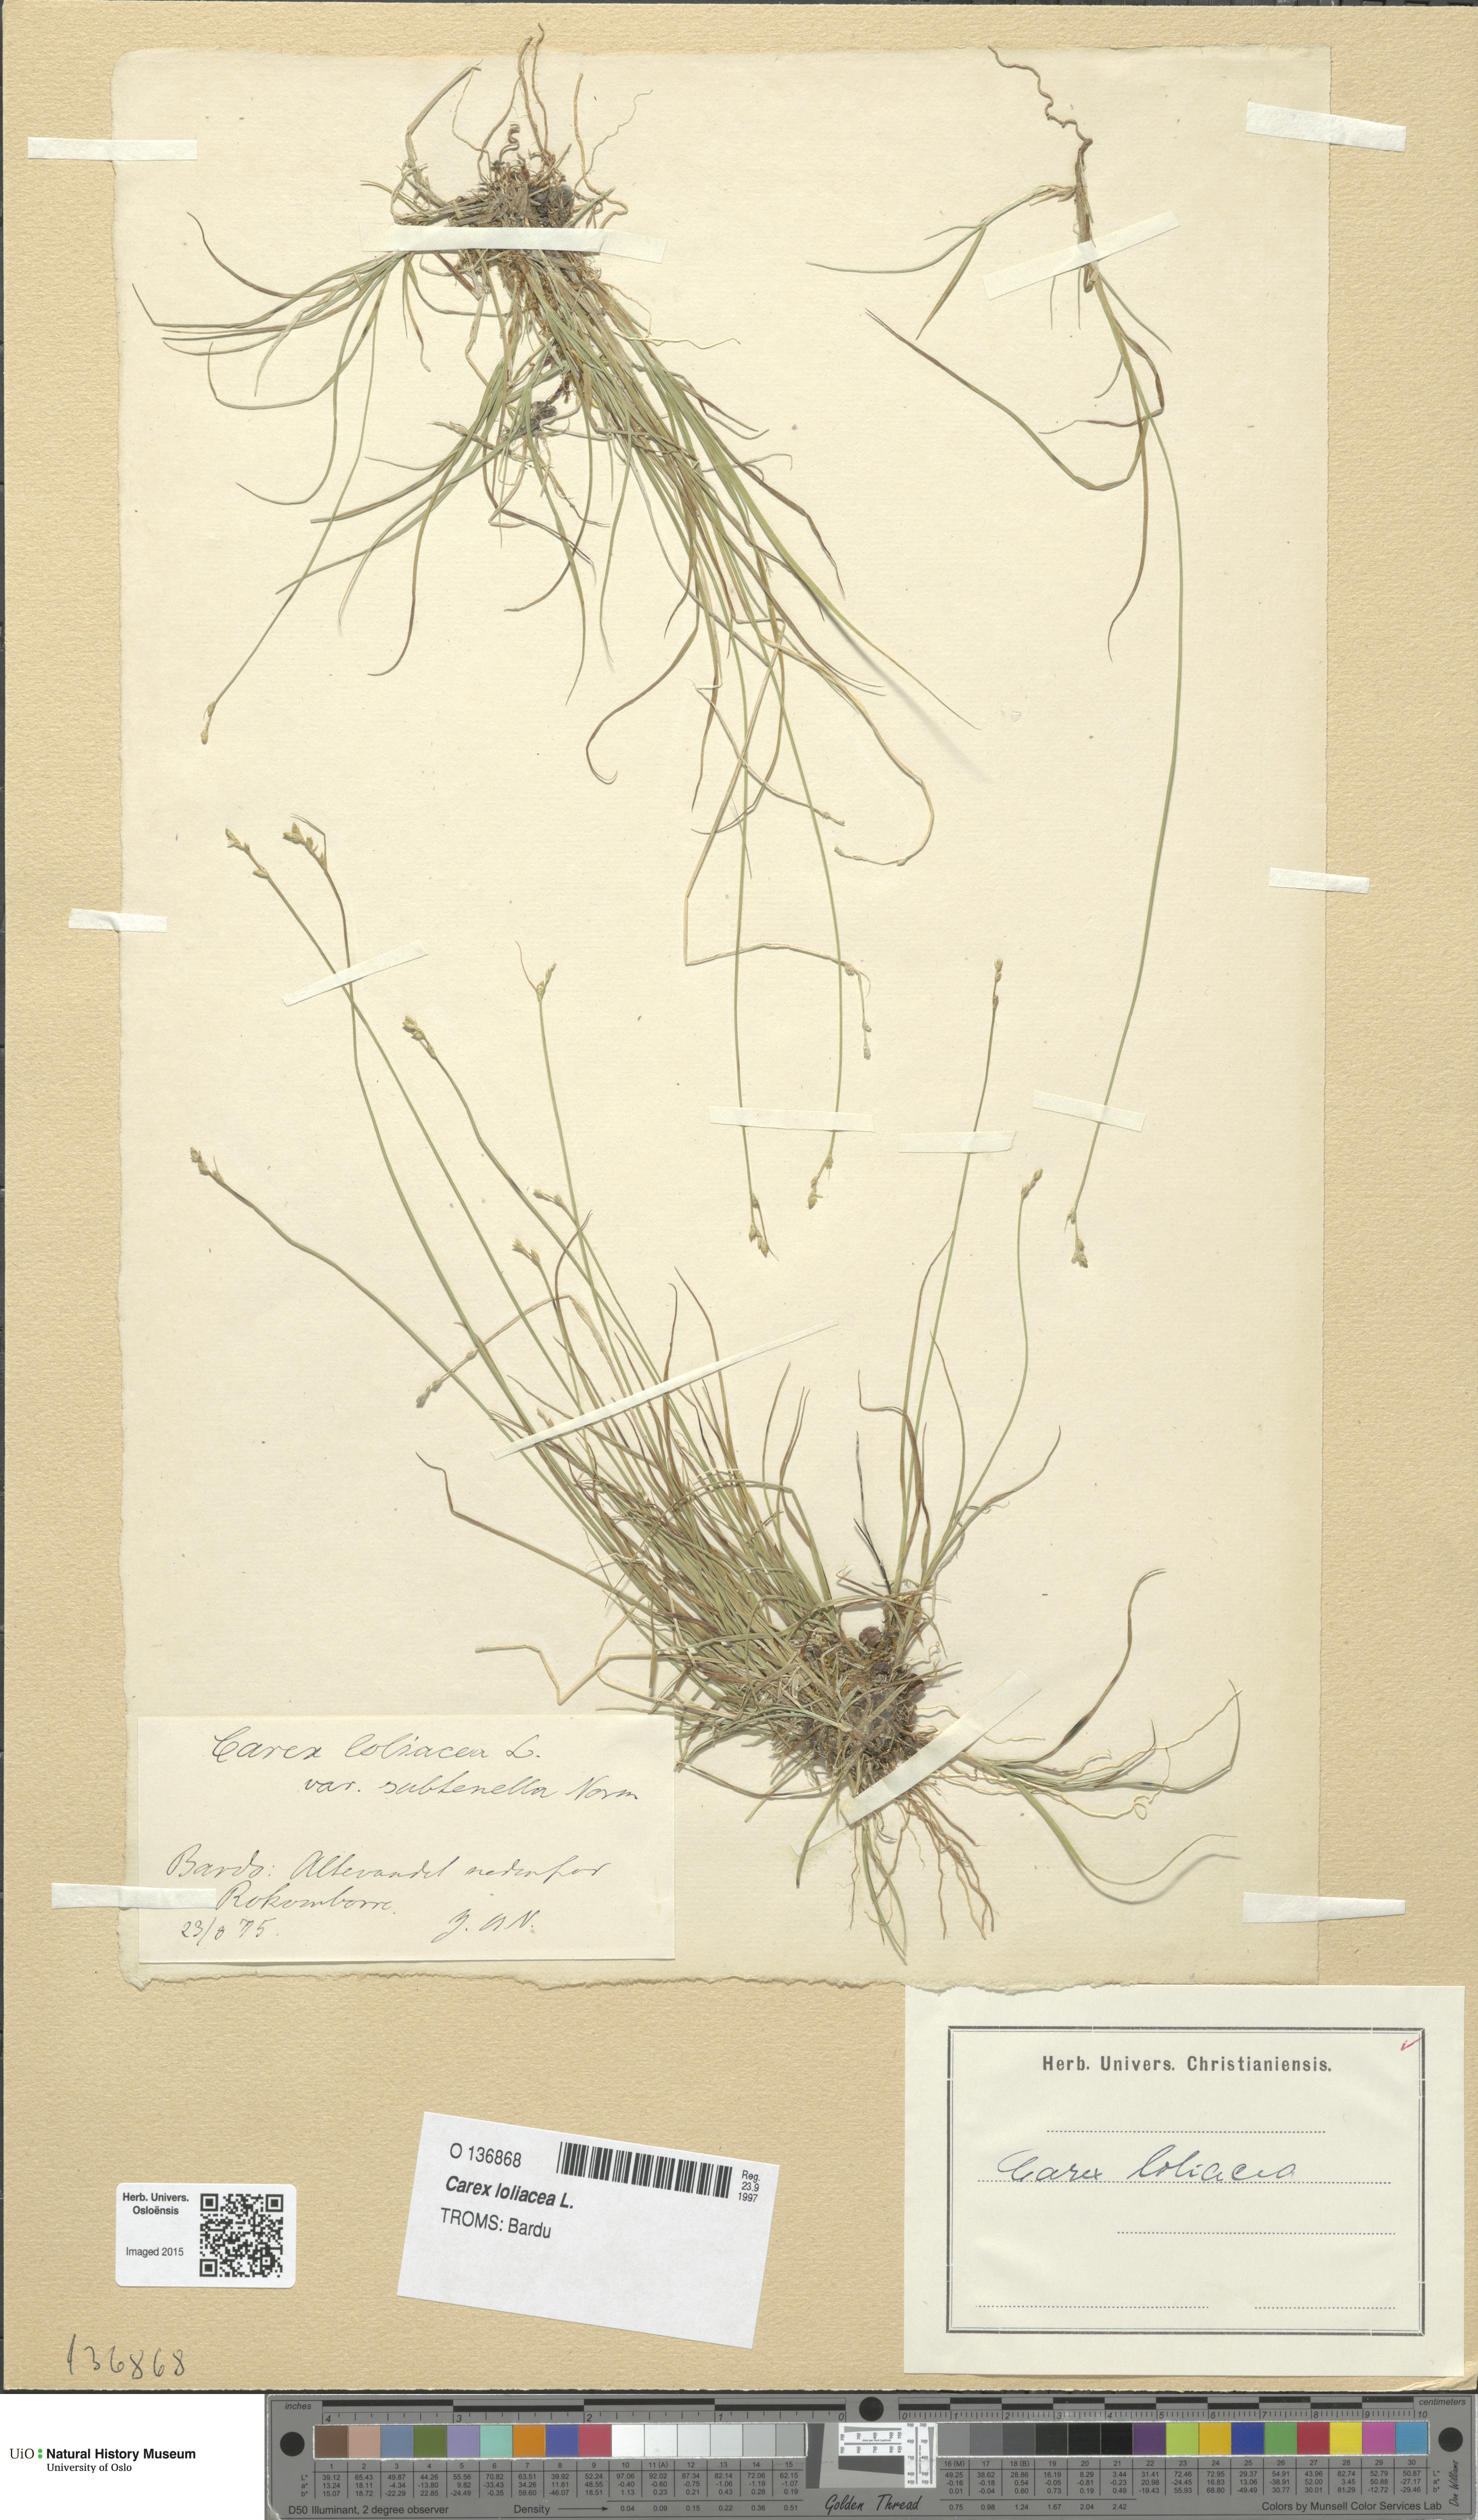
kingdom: Plantae
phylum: Tracheophyta
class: Liliopsida
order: Poales
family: Cyperaceae
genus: Carex
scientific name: Carex loliacea
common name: Ryegrass sedge
